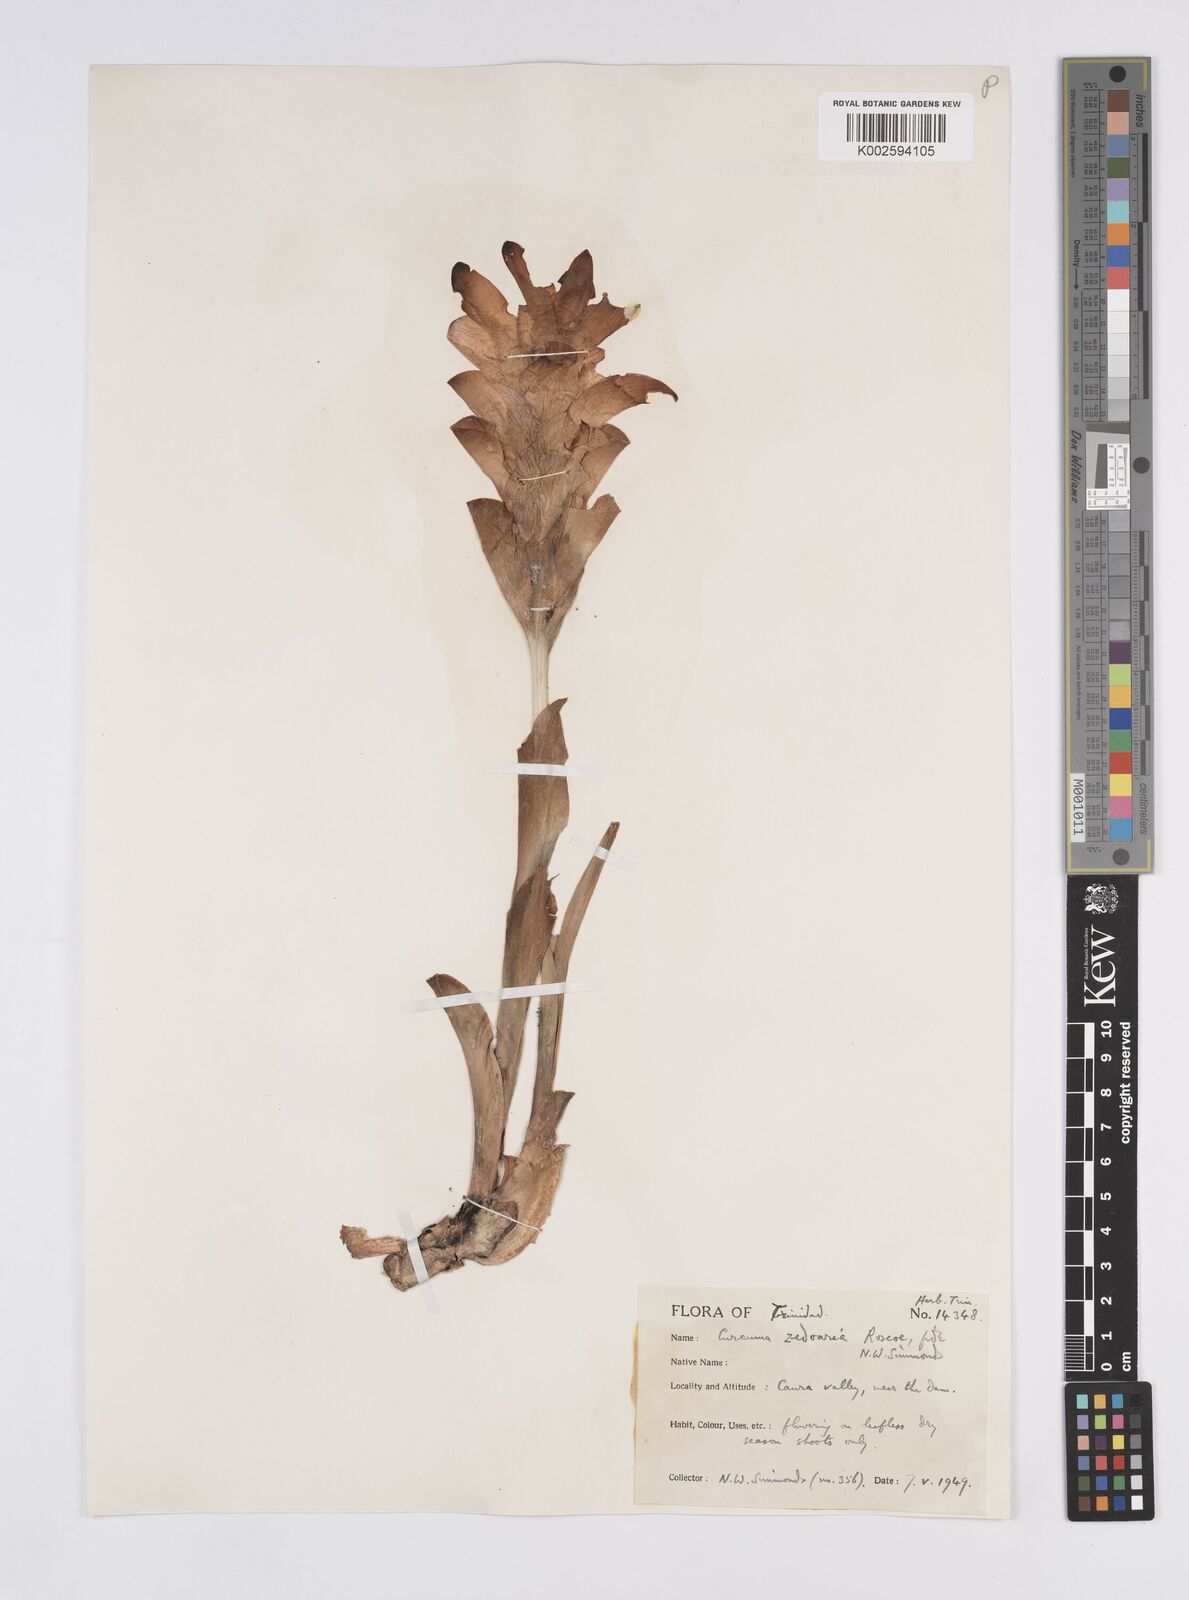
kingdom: Plantae
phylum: Tracheophyta
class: Liliopsida
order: Zingiberales
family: Zingiberaceae
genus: Curcuma
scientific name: Curcuma zedoaria
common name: Zedoary
